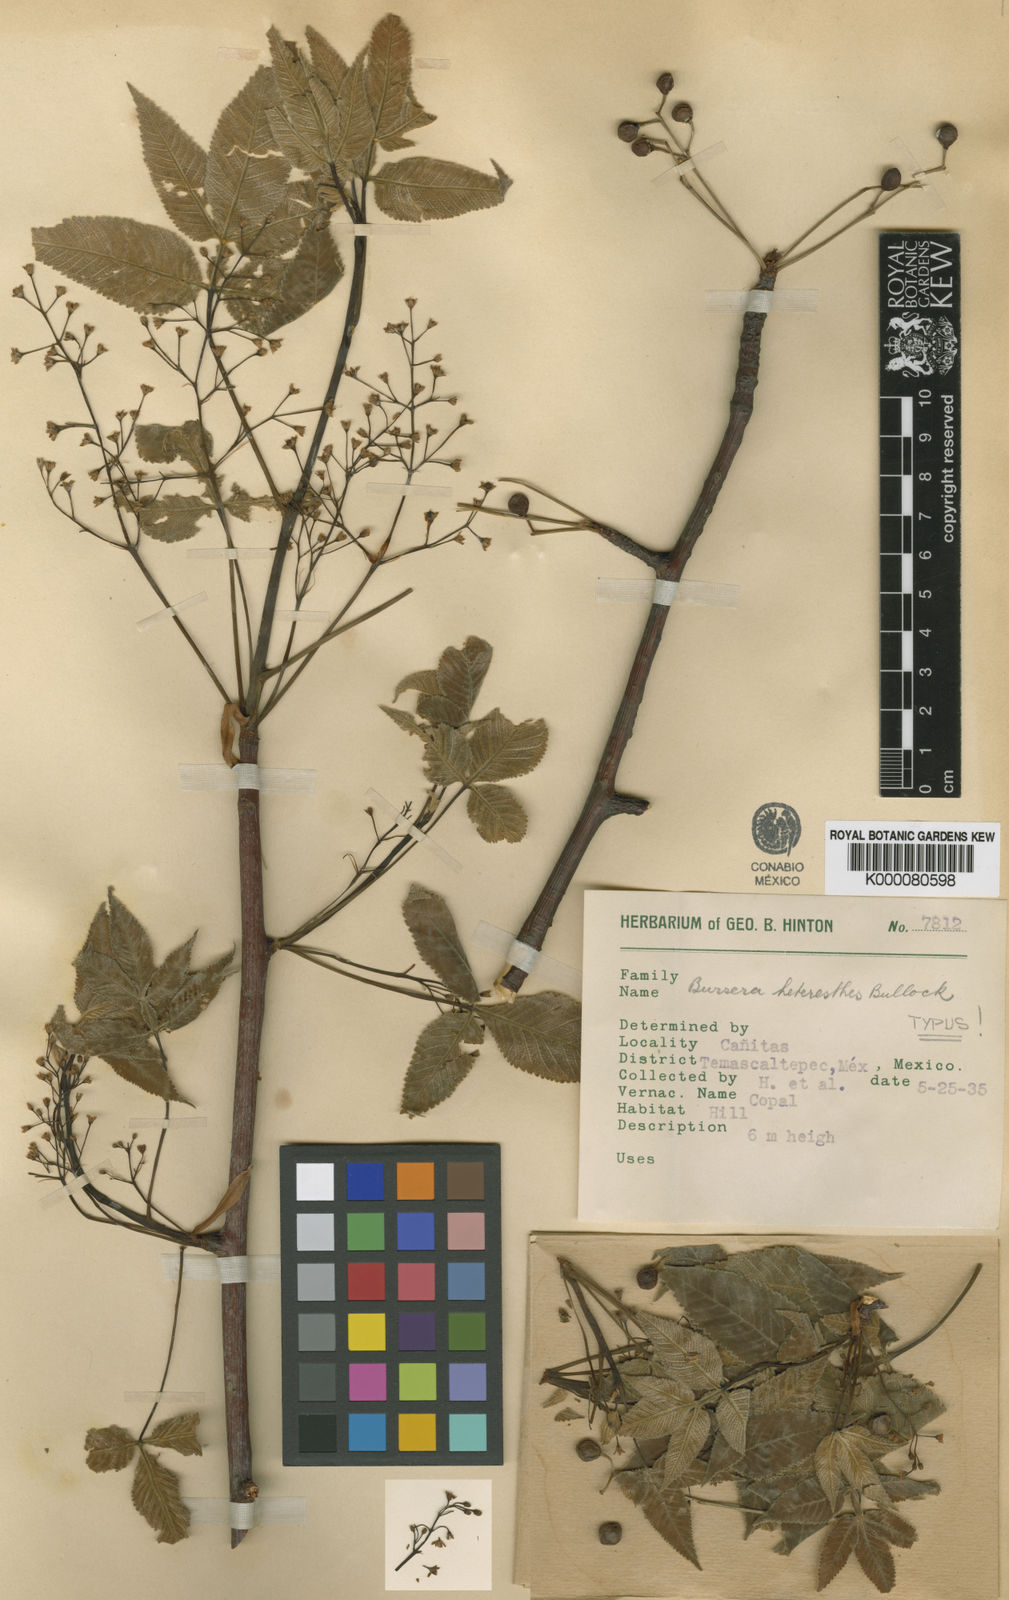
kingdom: Plantae
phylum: Tracheophyta
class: Magnoliopsida
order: Sapindales
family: Burseraceae
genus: Bursera
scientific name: Bursera heteresthes
